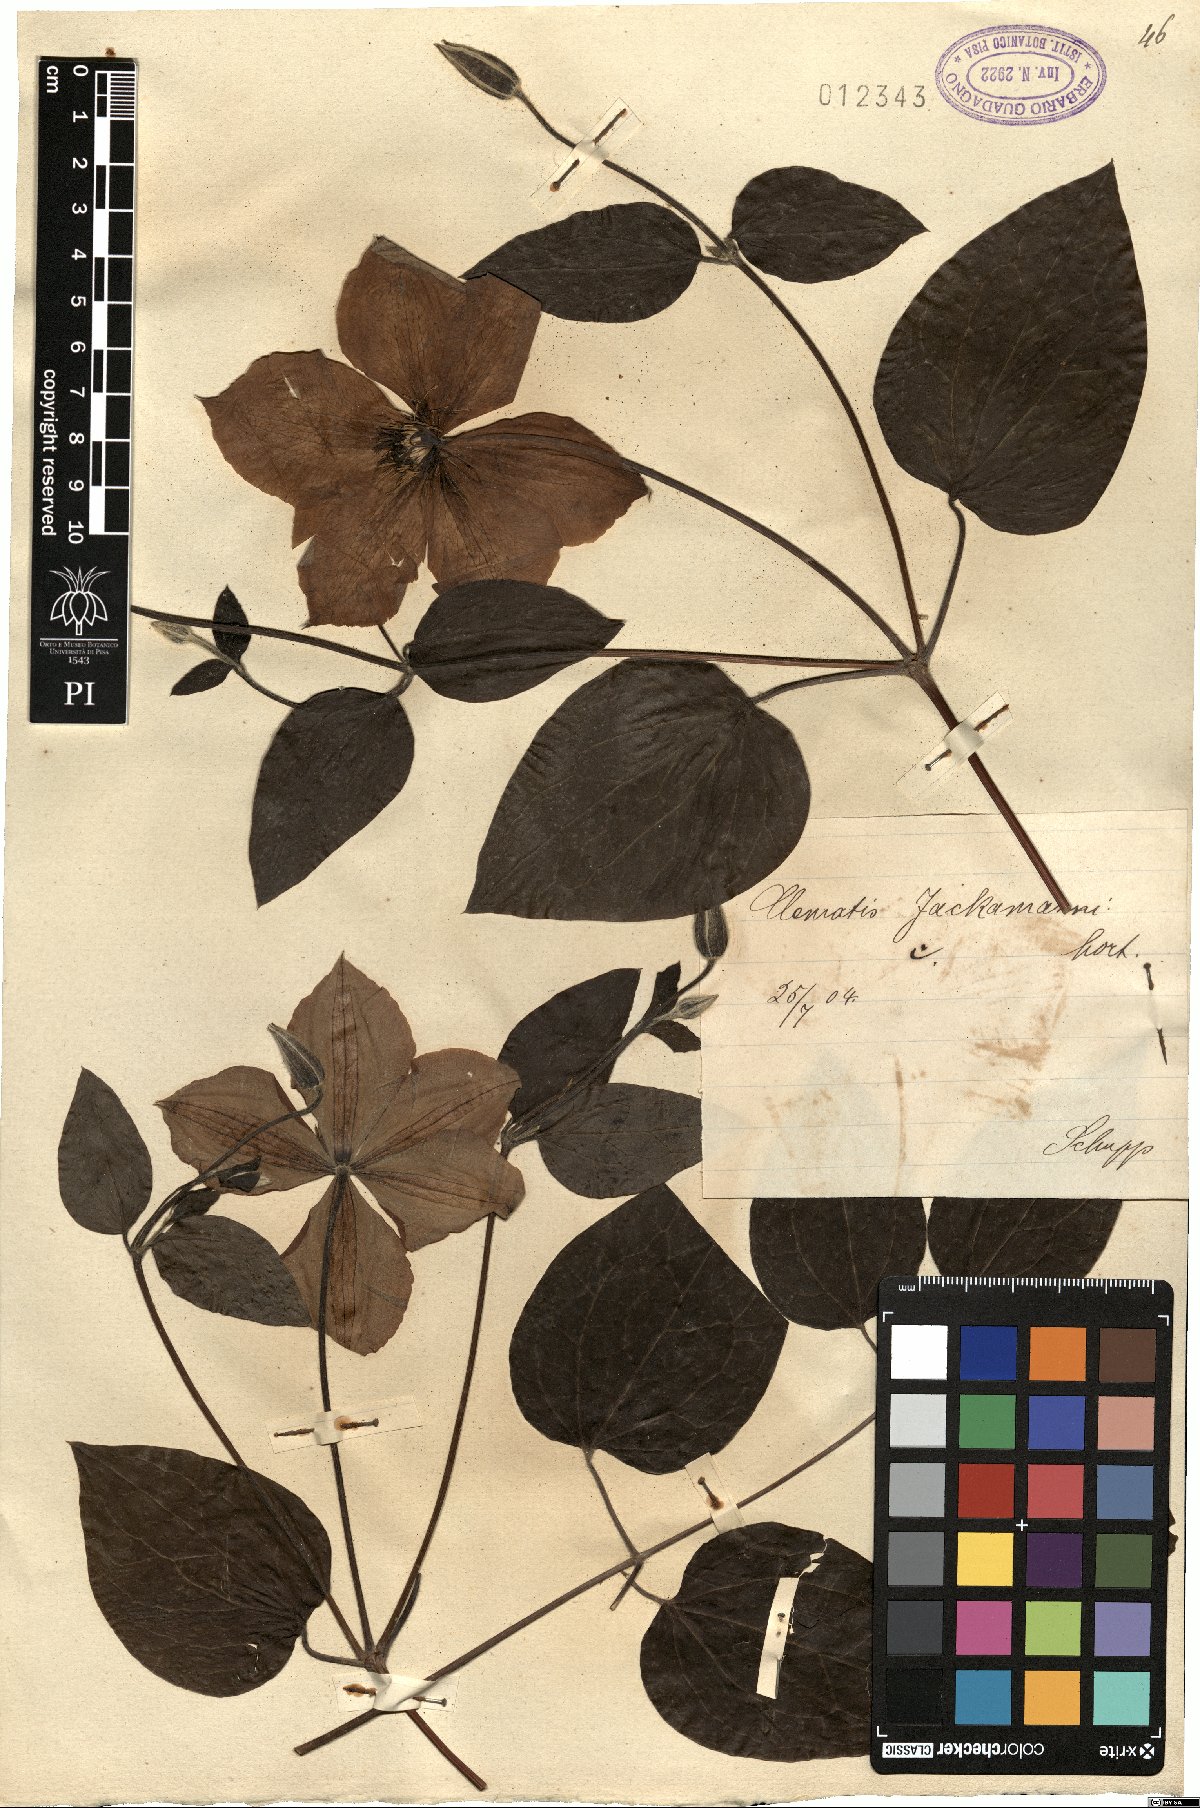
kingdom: Plantae
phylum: Tracheophyta
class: Magnoliopsida
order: Ranunculales
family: Ranunculaceae
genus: Clematis
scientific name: Clematis jackmanii
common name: Leather flower
